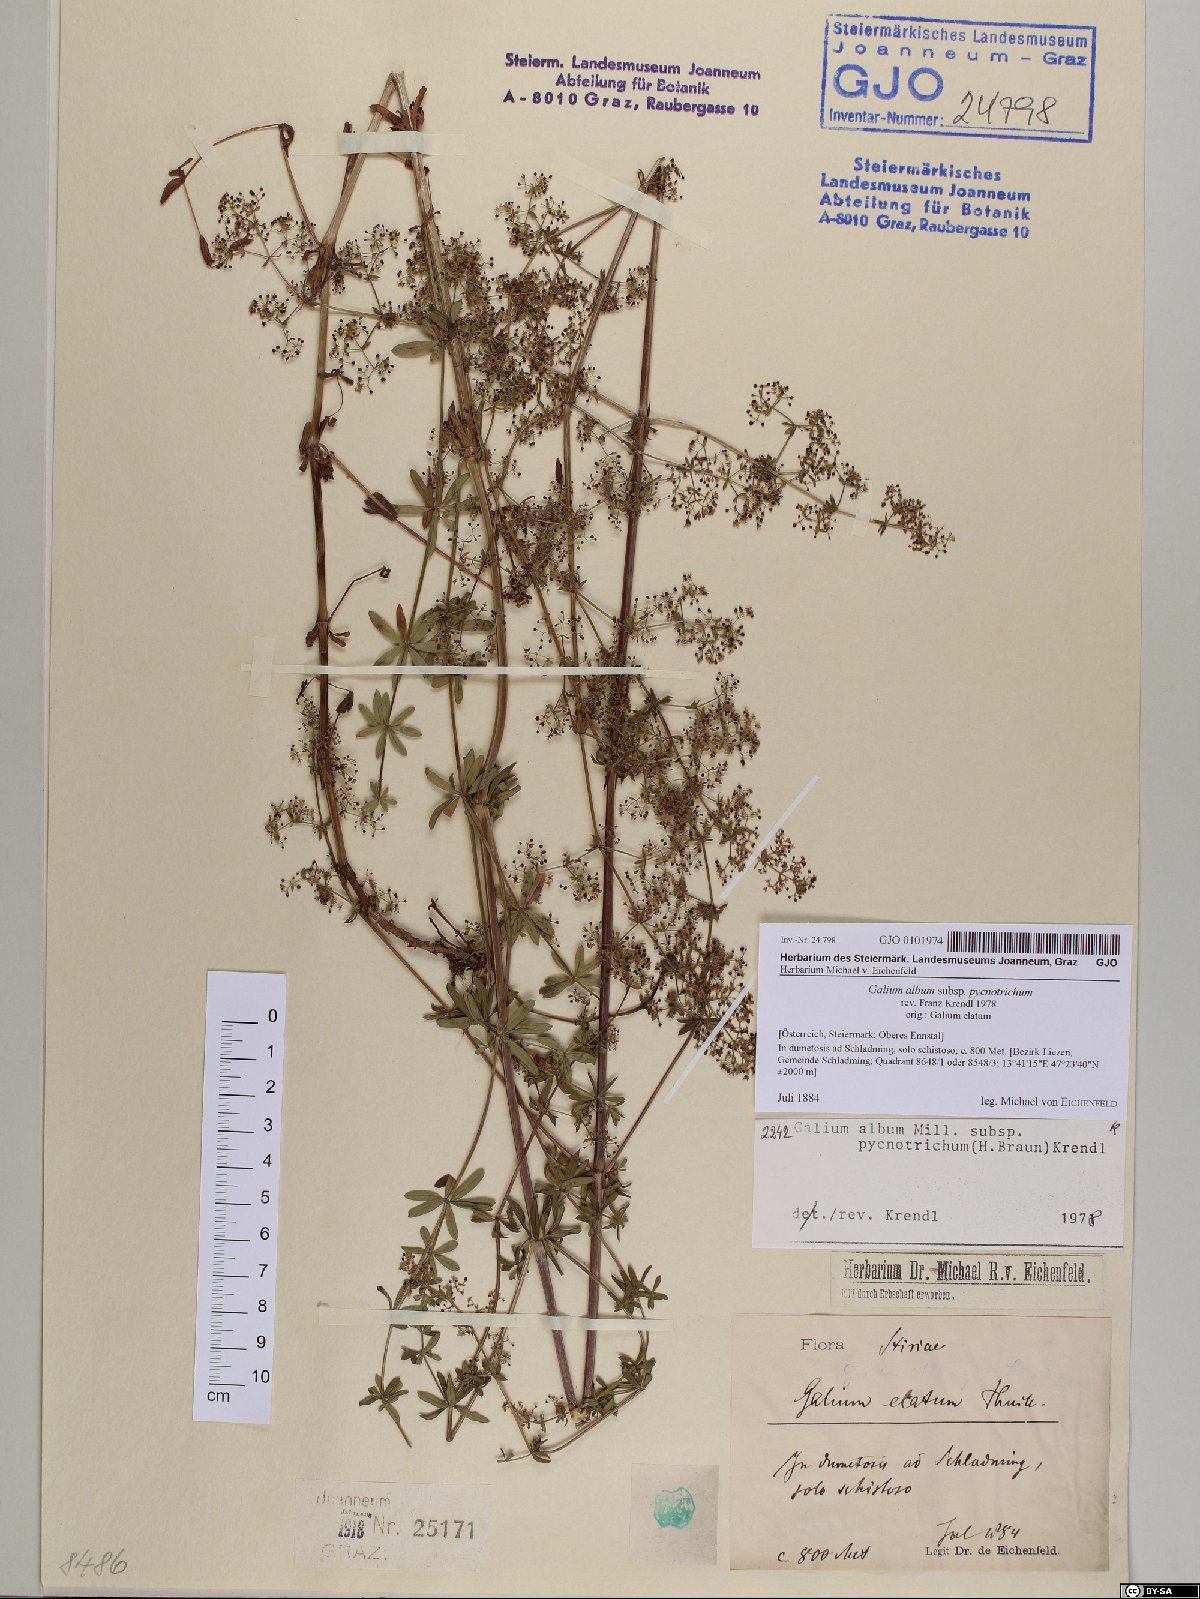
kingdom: Plantae
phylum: Tracheophyta
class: Magnoliopsida
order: Gentianales
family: Rubiaceae
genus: Galium
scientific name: Galium album
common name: White bedstraw
